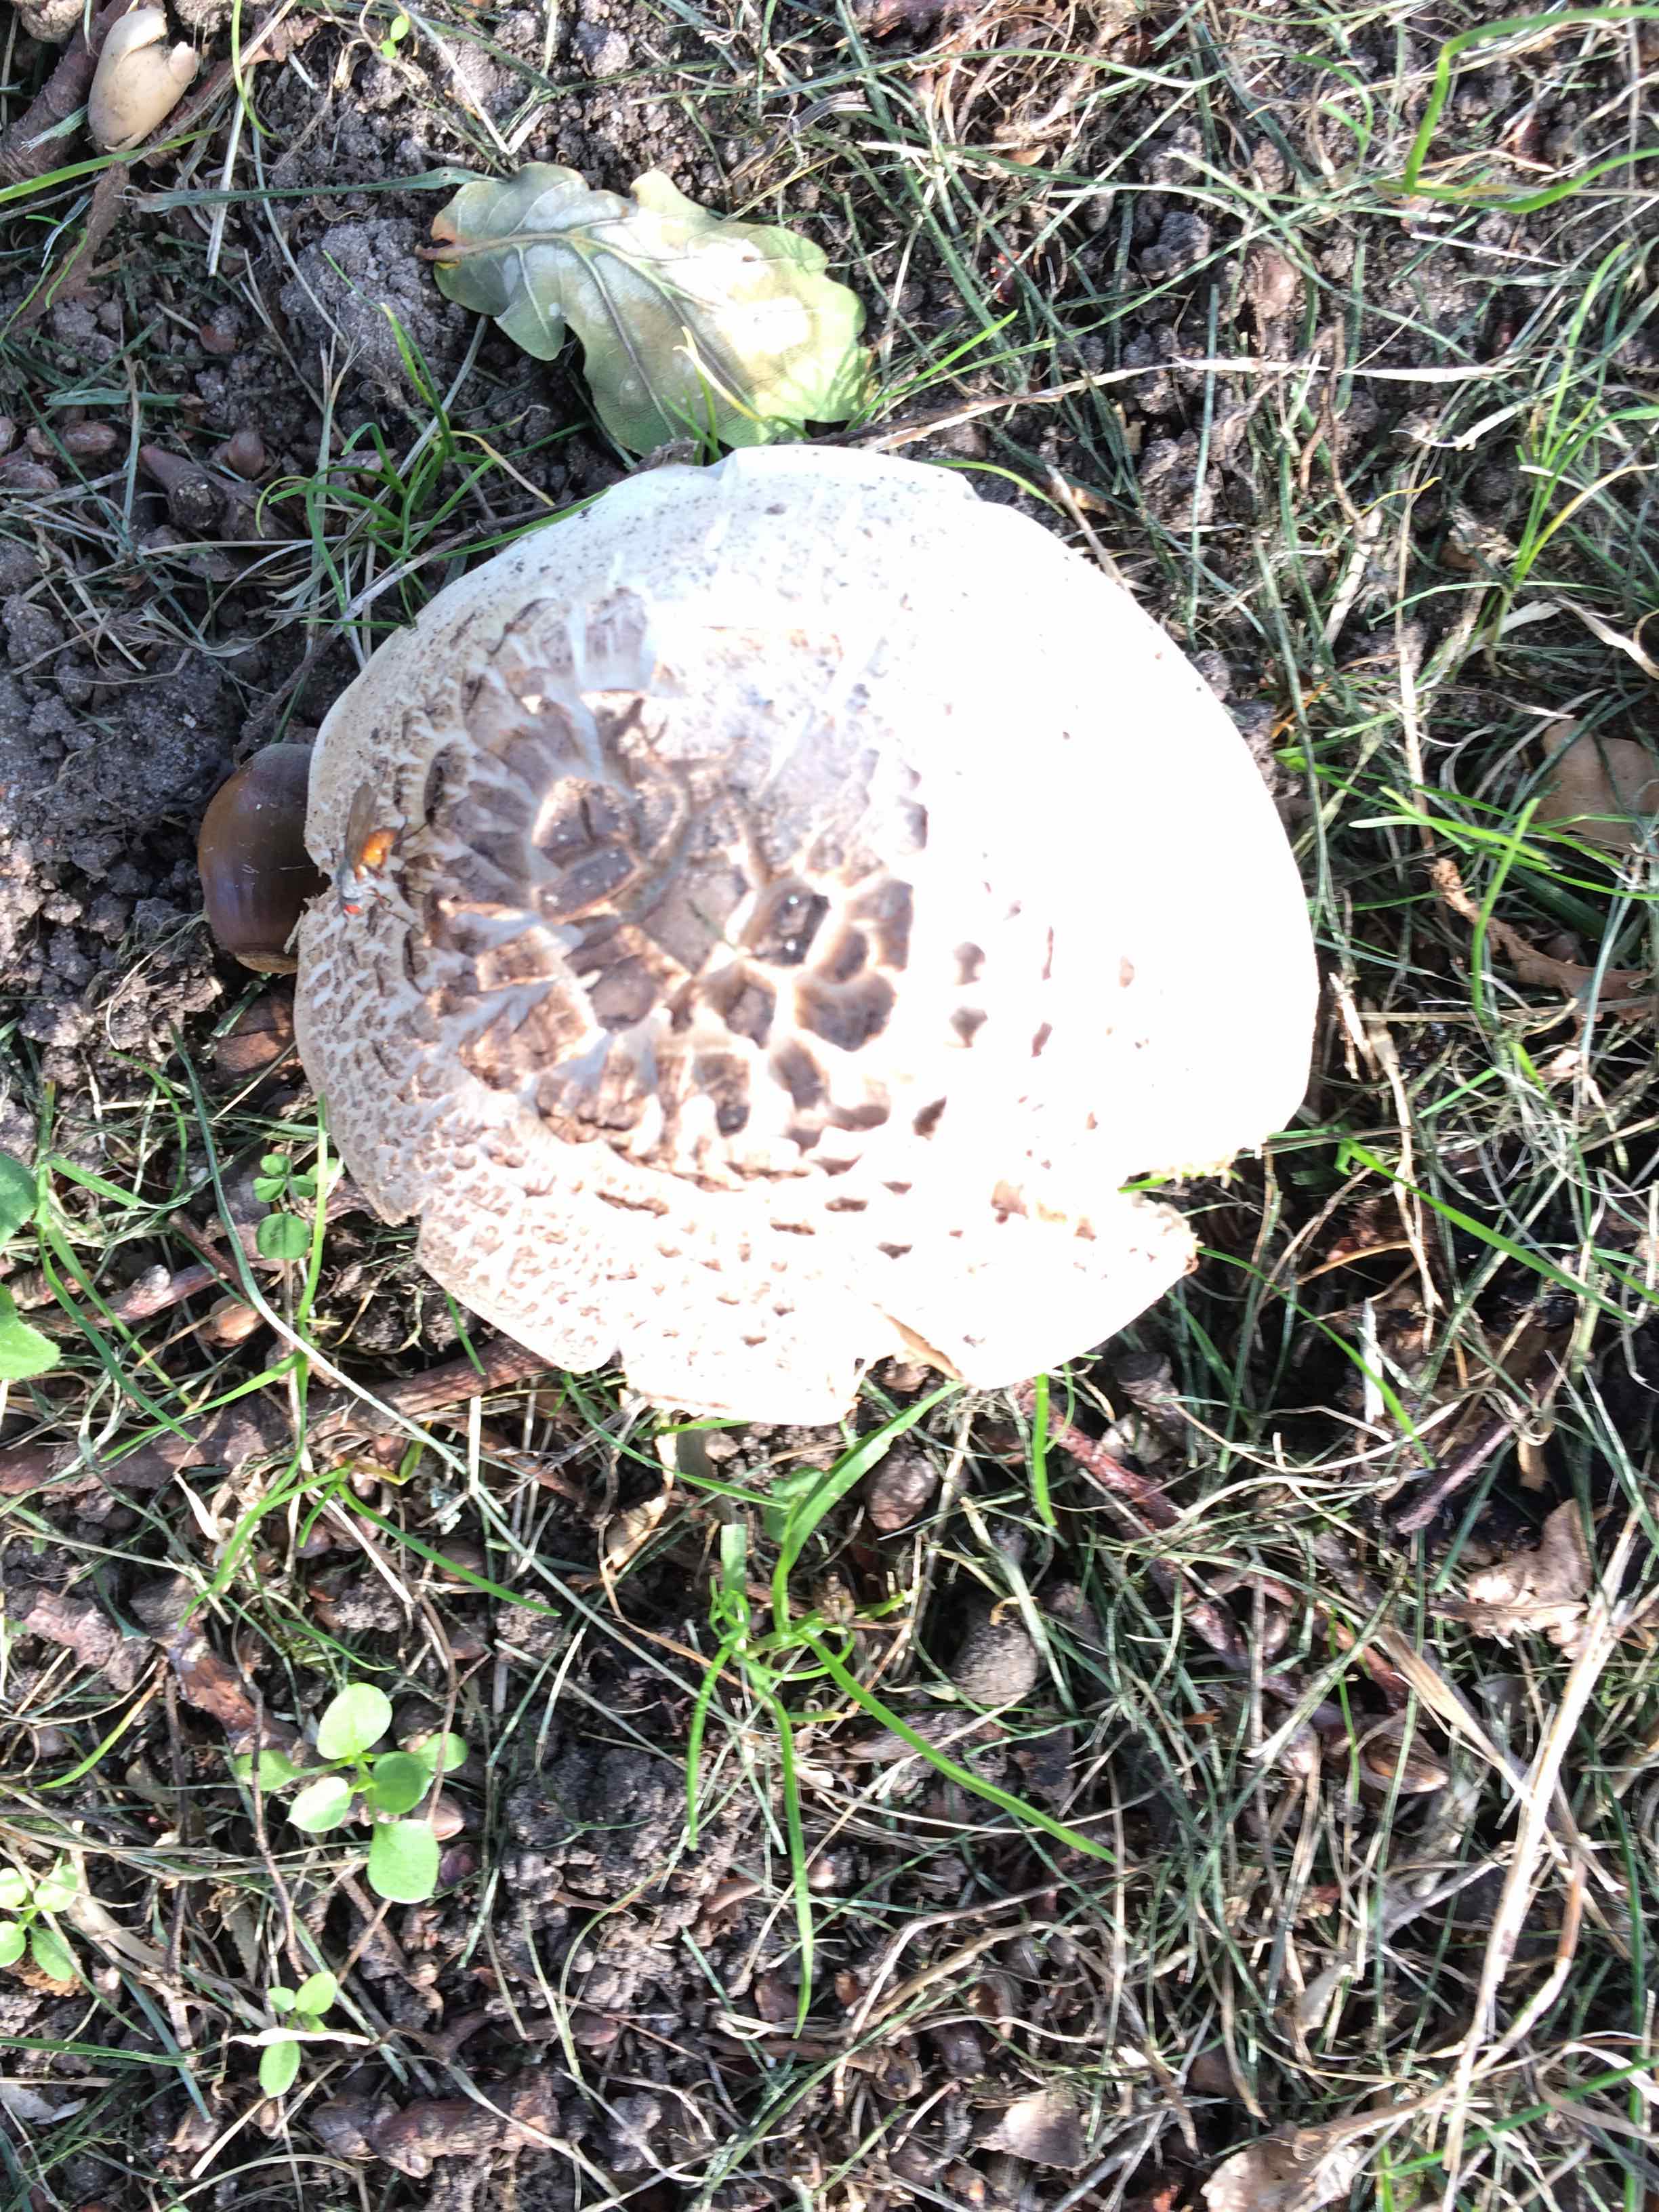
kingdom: Fungi
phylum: Basidiomycota
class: Agaricomycetes
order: Agaricales
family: Agaricaceae
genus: Agaricus
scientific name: Agaricus xanthodermus
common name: karbol-champignon
